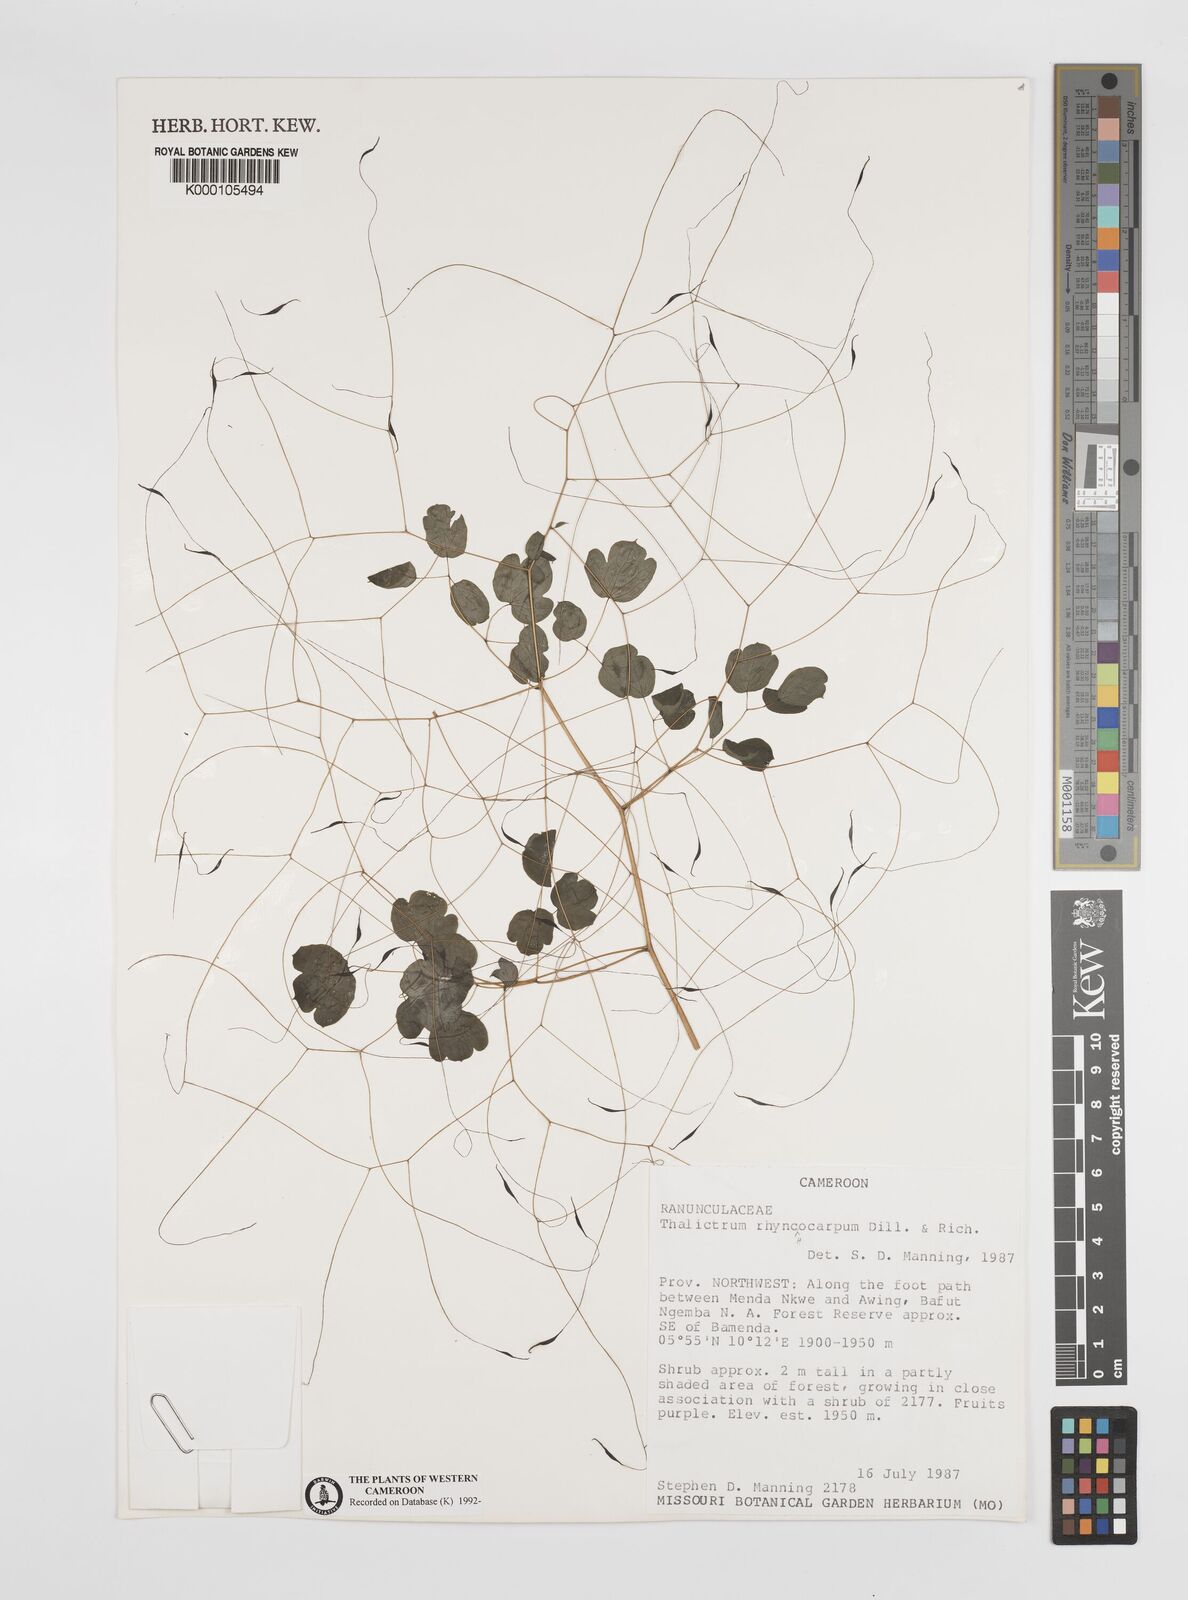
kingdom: Plantae
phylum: Tracheophyta
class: Magnoliopsida
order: Ranunculales
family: Ranunculaceae
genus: Thalictrum
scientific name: Thalictrum
